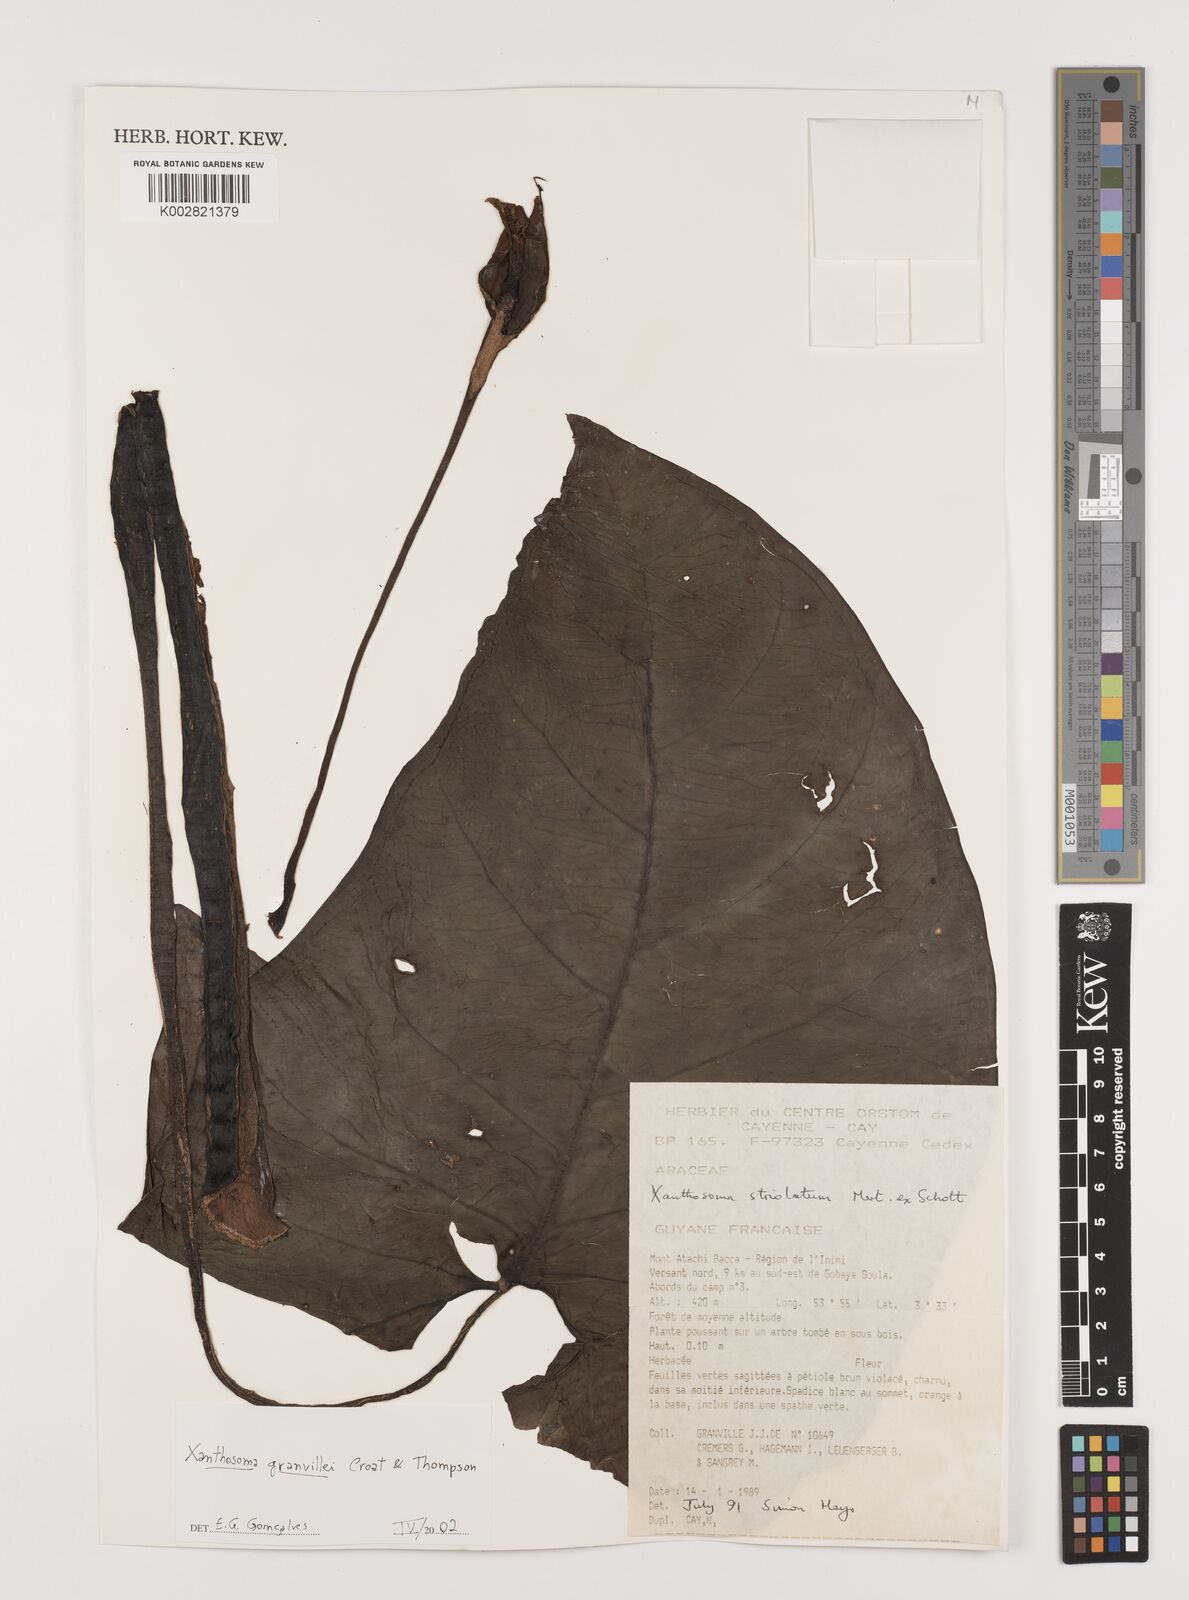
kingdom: Plantae
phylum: Tracheophyta
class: Liliopsida
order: Alismatales
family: Araceae
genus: Xanthosoma
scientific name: Xanthosoma granvillei
